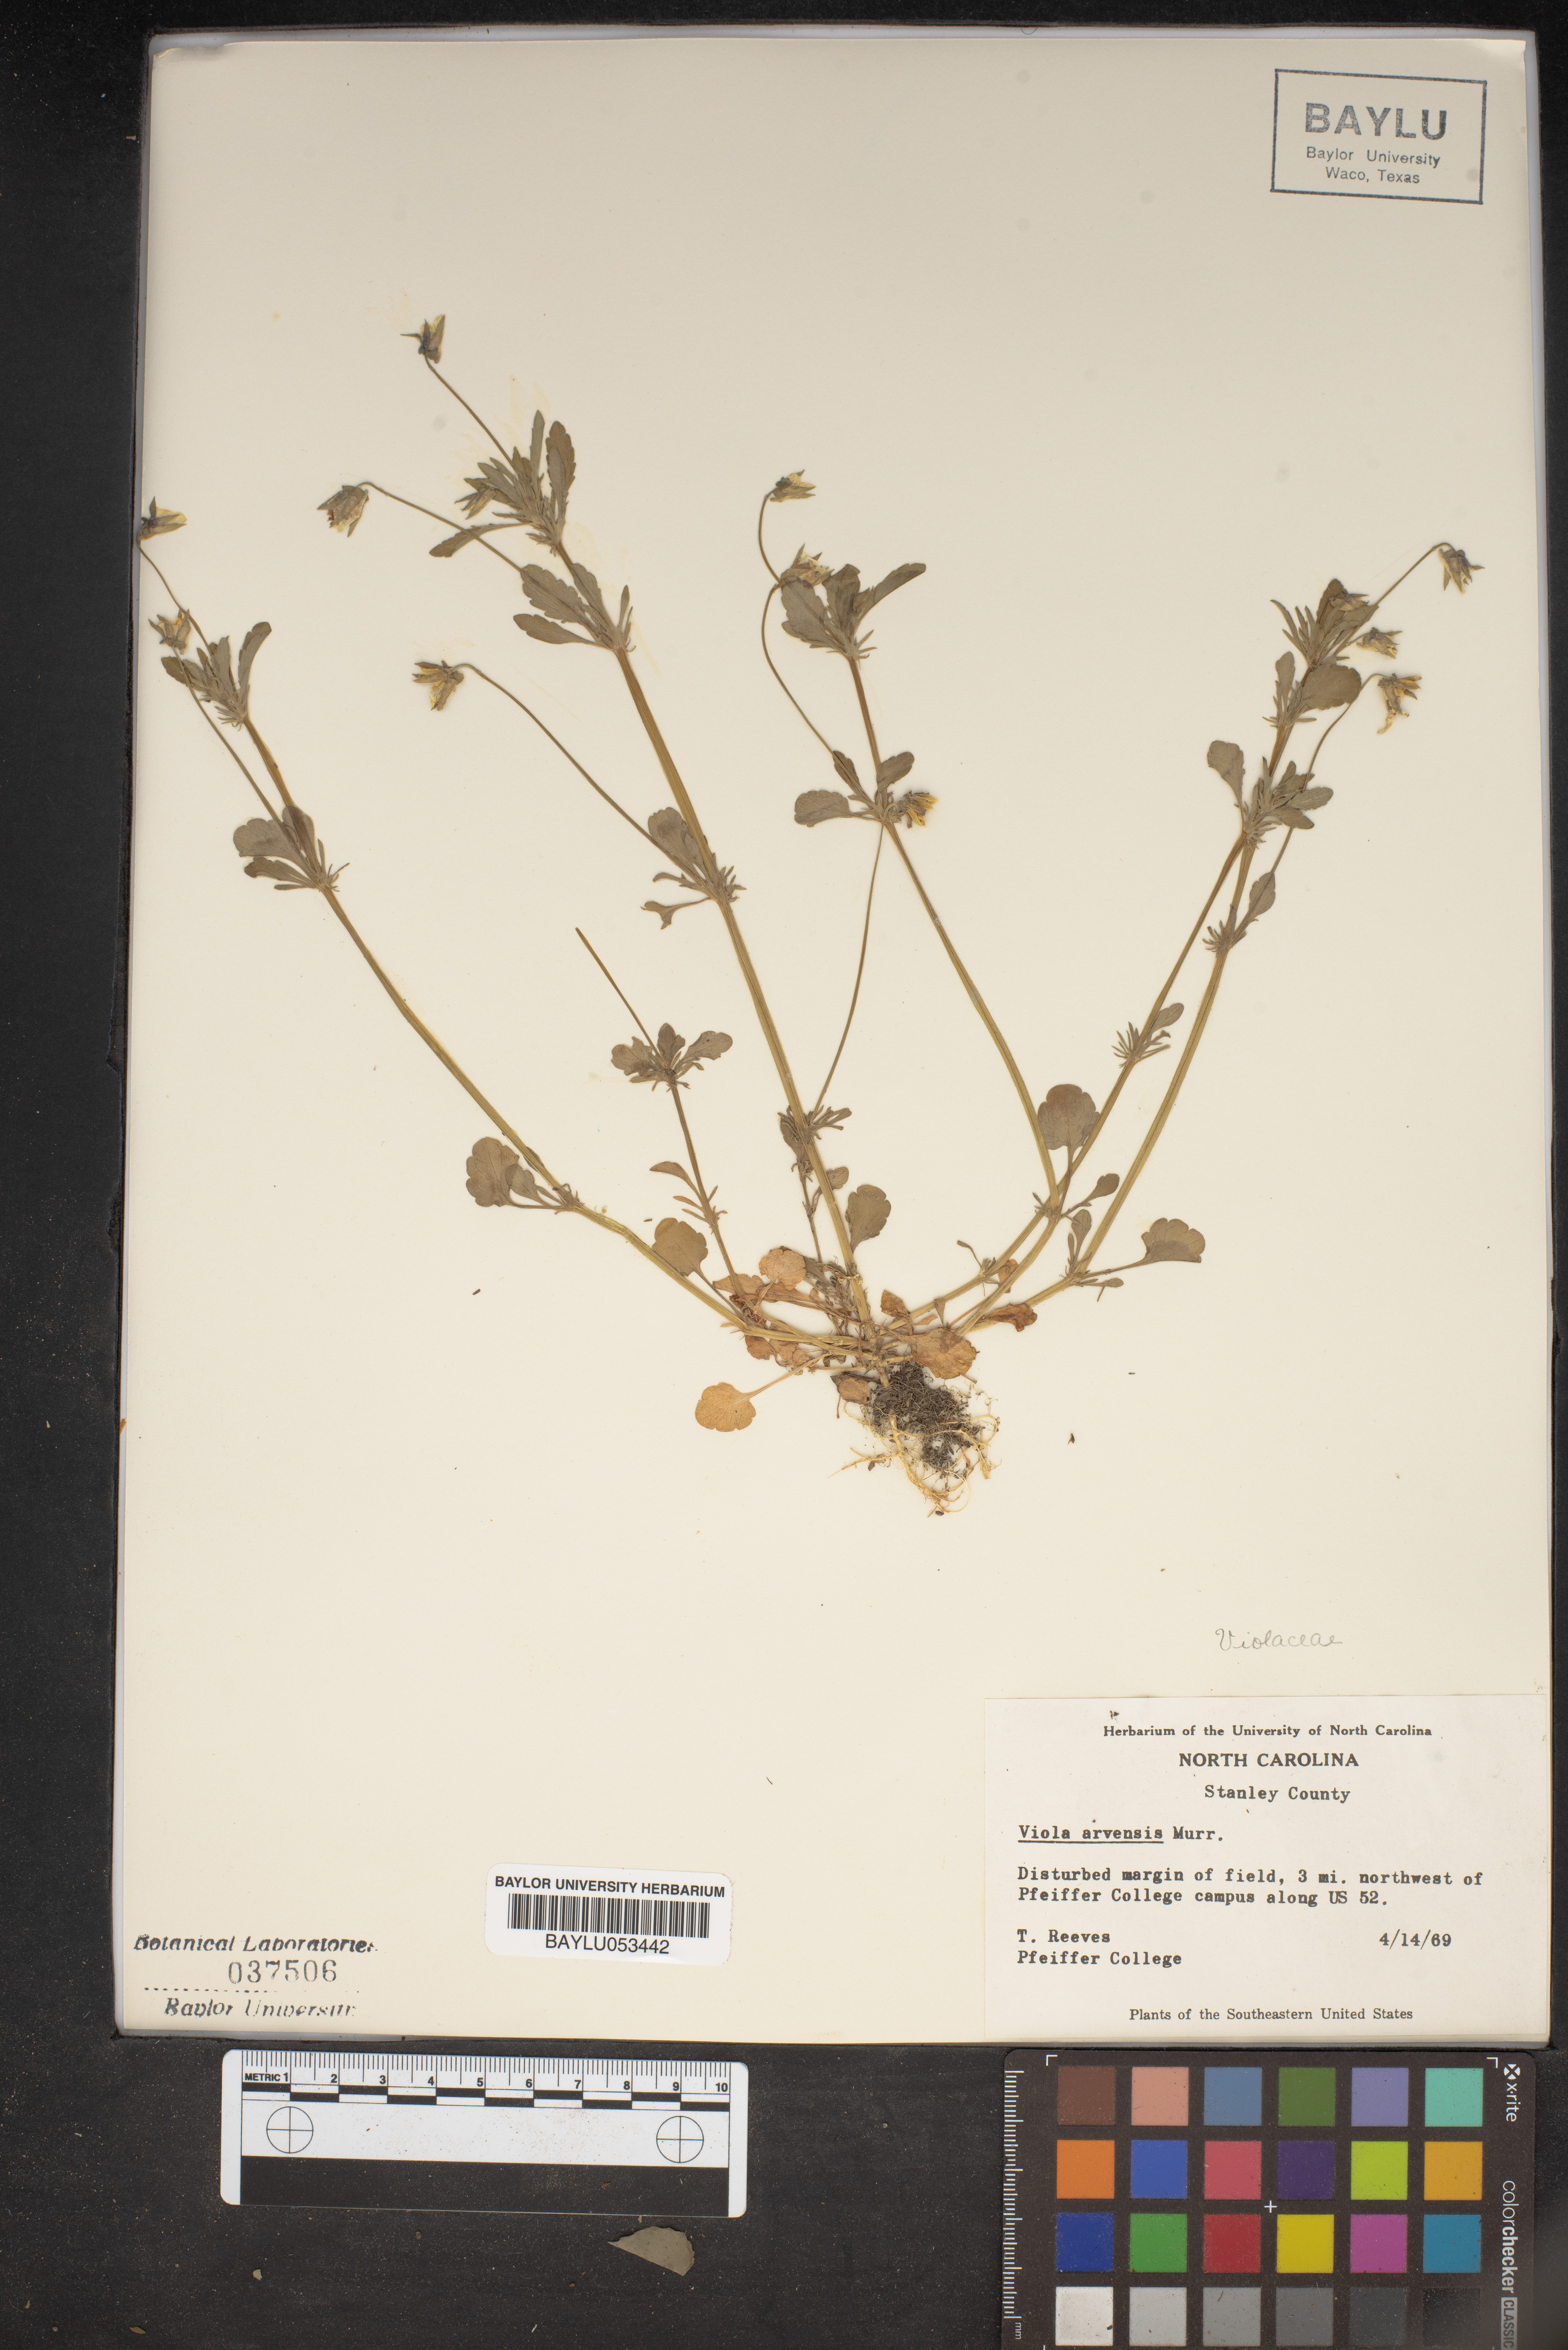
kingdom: Plantae
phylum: Tracheophyta
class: Magnoliopsida
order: Malpighiales
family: Violaceae
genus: Viola
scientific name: Viola arvensis
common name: Field pansy
